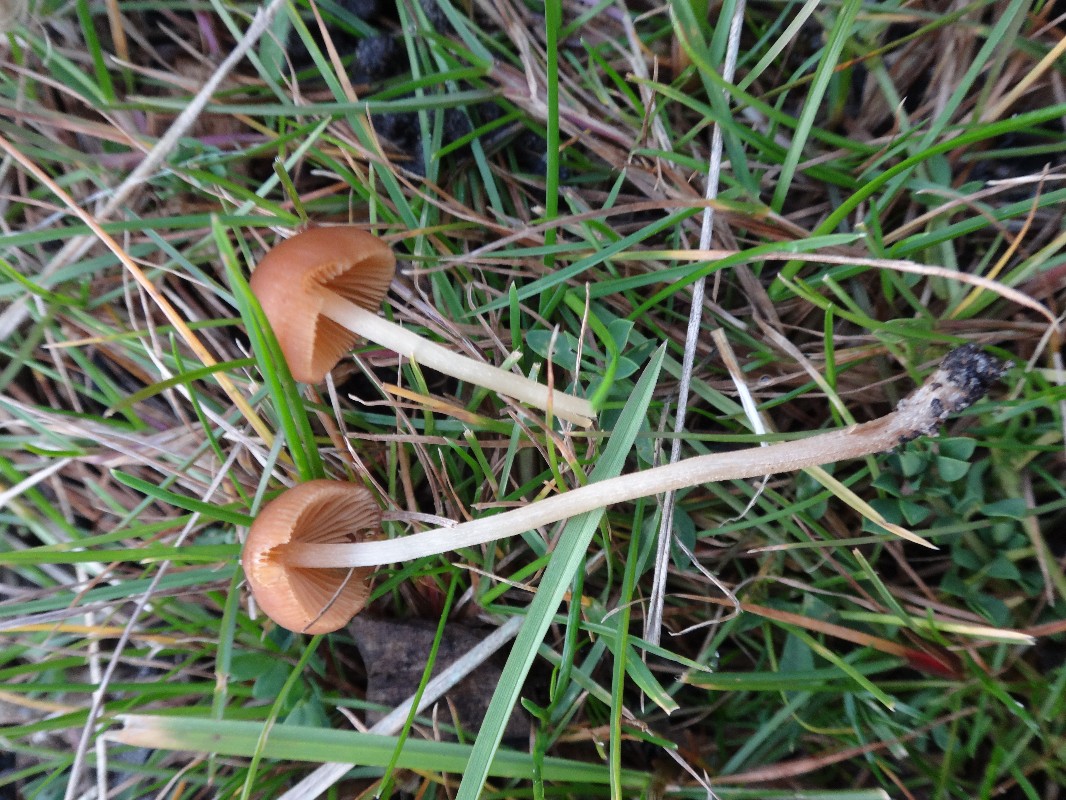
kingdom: Fungi
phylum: Basidiomycota
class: Agaricomycetes
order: Agaricales
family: Bolbitiaceae
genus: Conocybe
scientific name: Conocybe tenera
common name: rank keglehat
